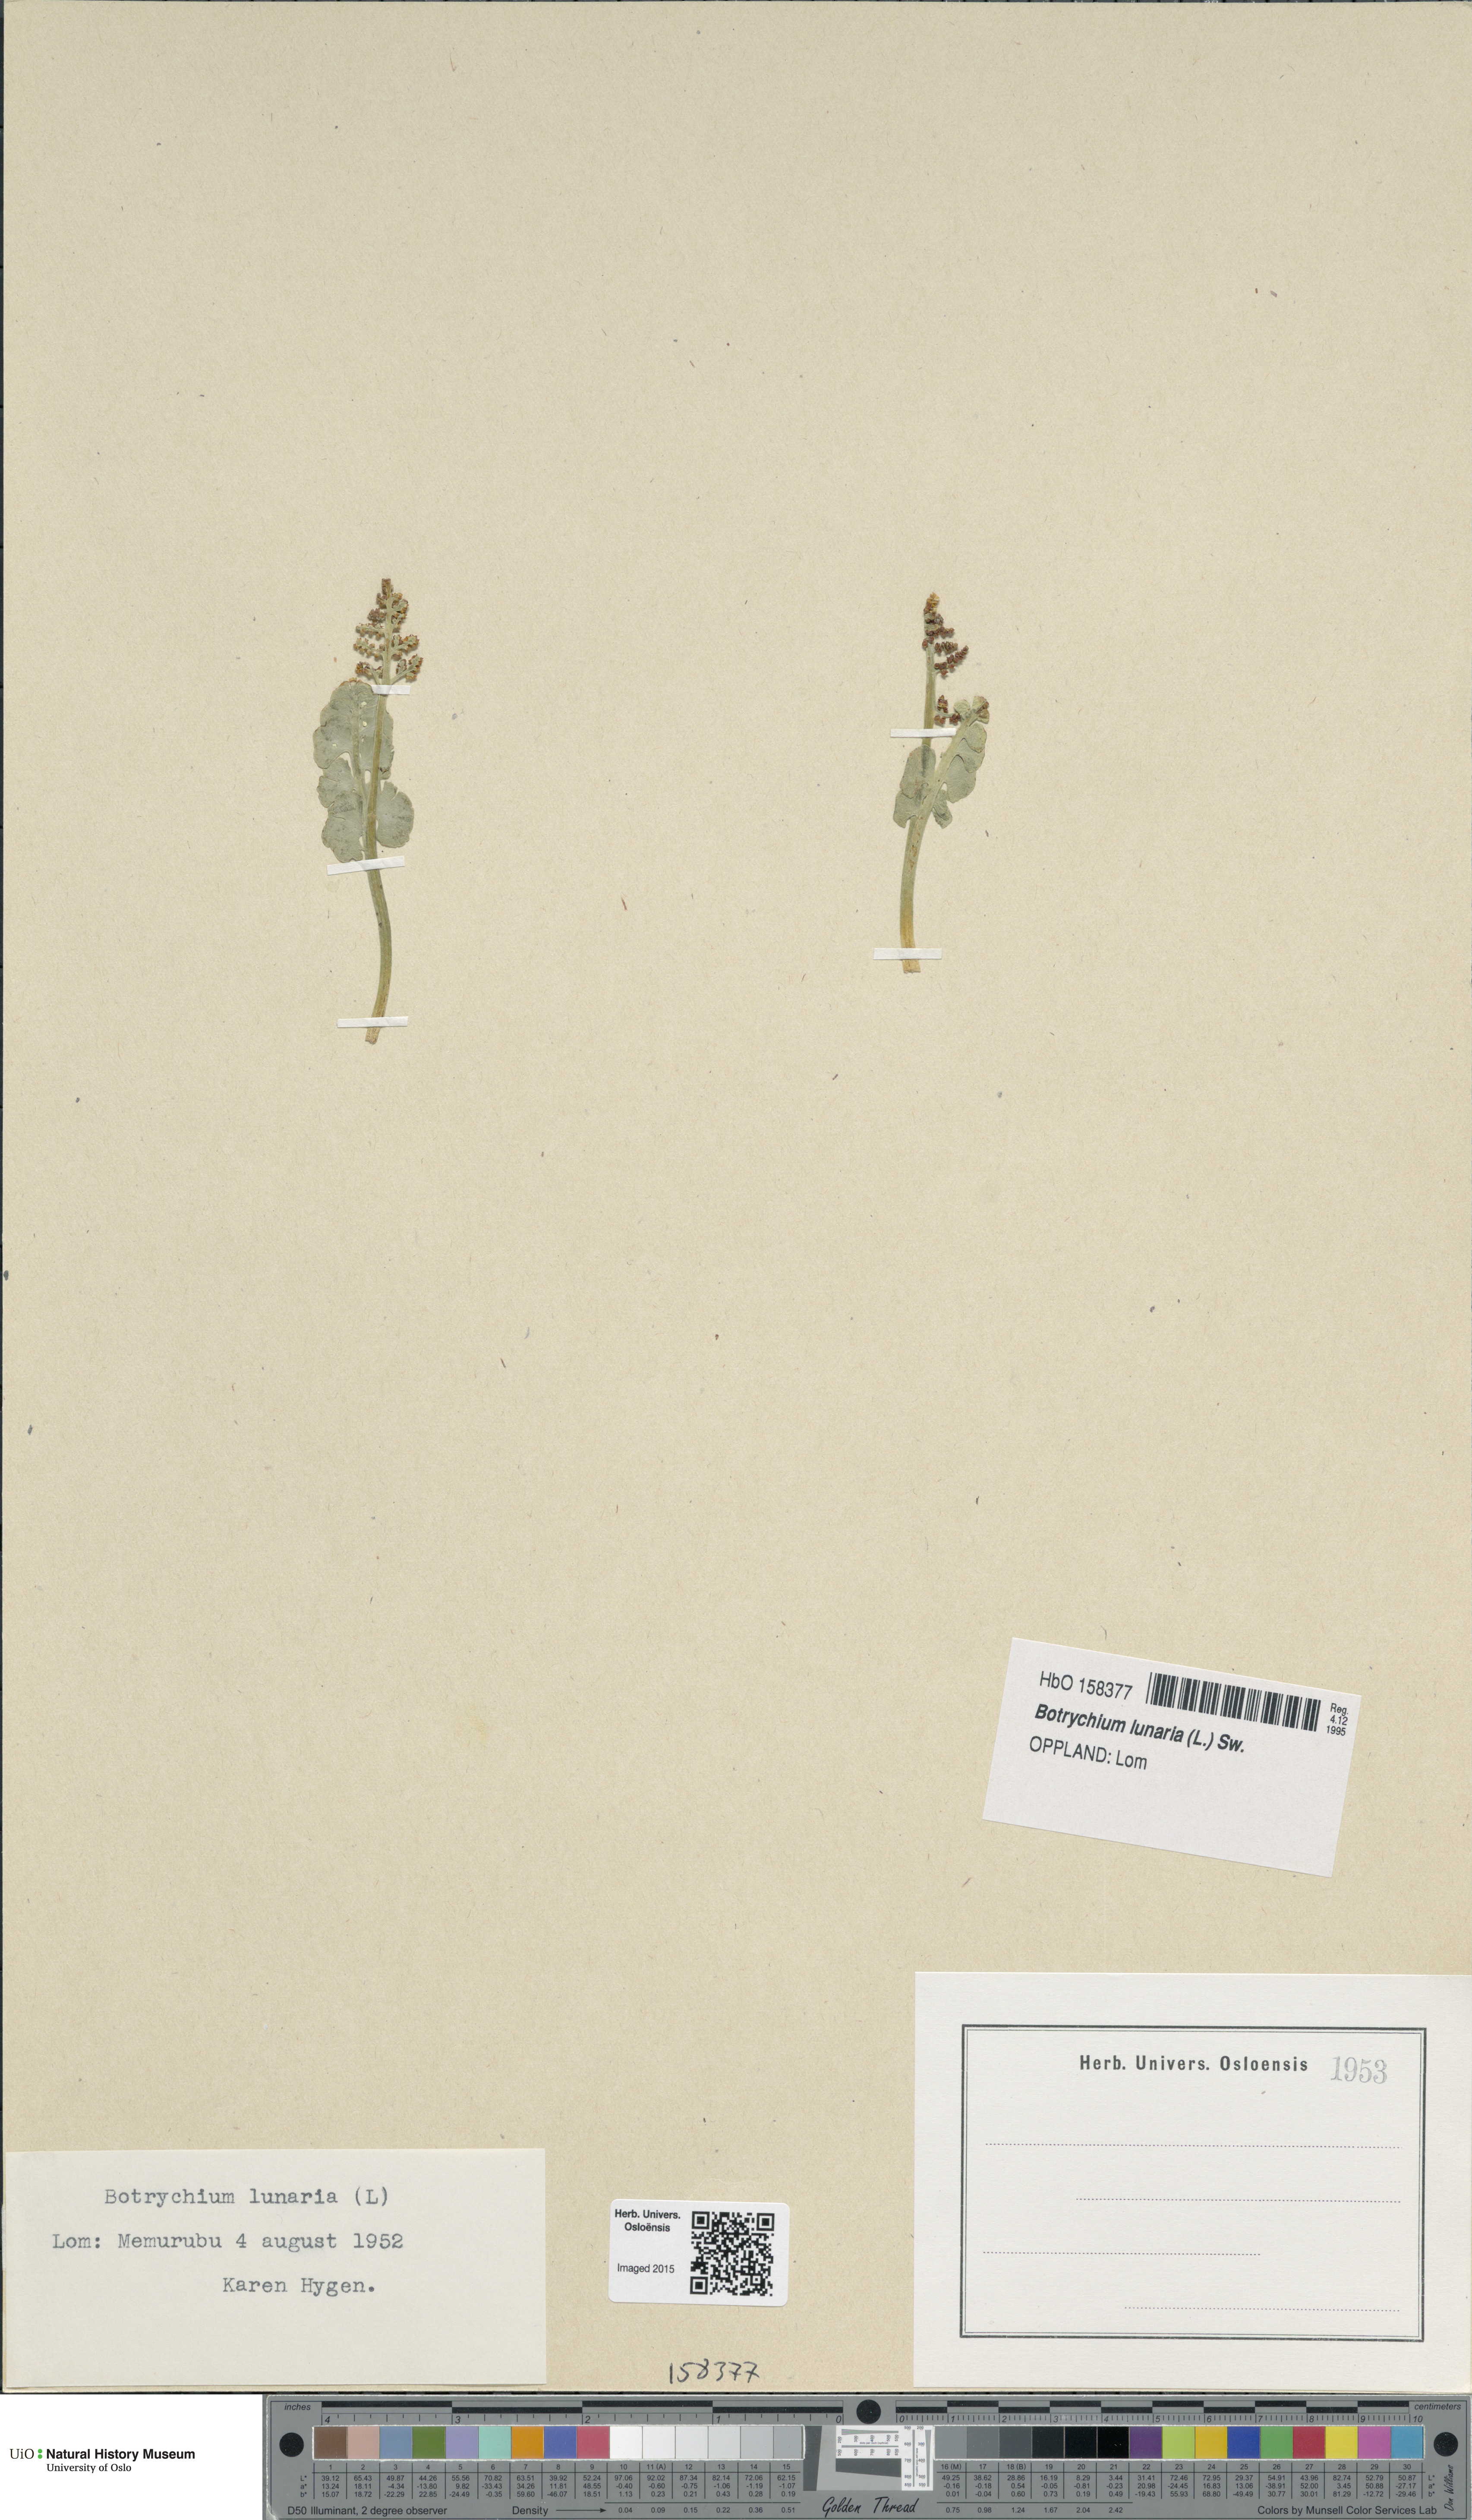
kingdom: Plantae
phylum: Tracheophyta
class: Polypodiopsida
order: Ophioglossales
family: Ophioglossaceae
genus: Botrychium
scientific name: Botrychium lunaria
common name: Moonwort
